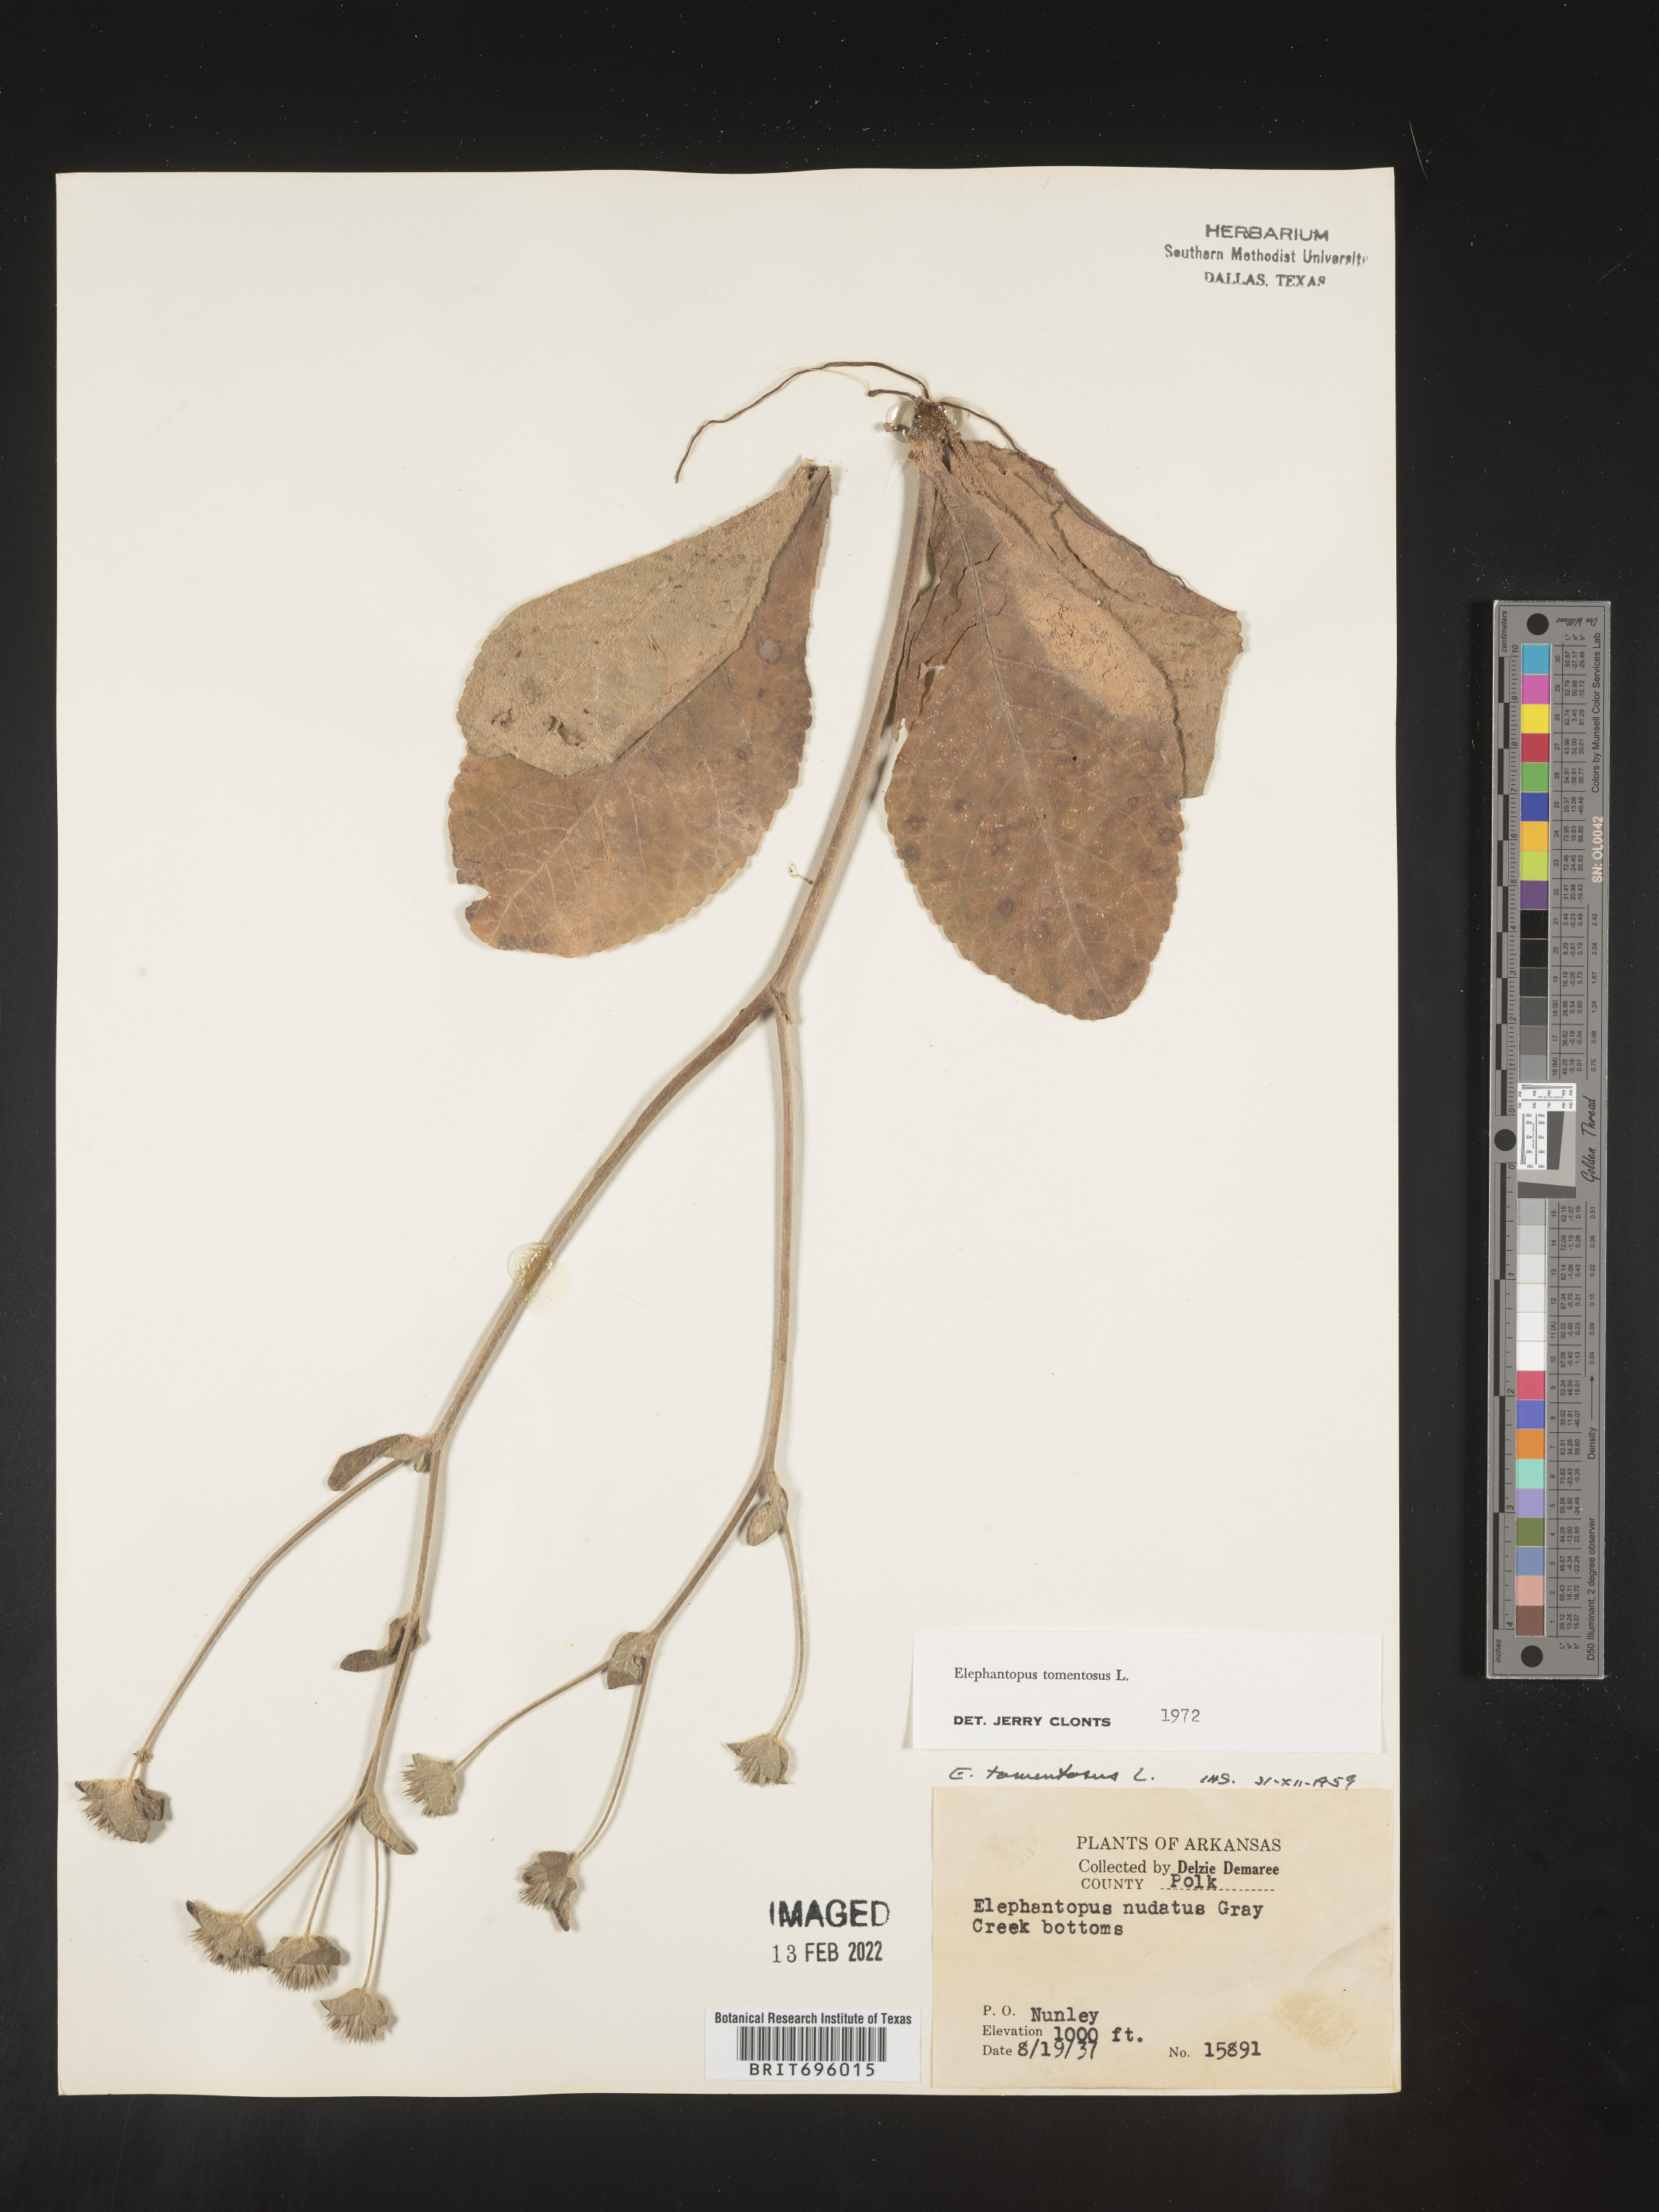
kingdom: Plantae
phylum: Tracheophyta
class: Magnoliopsida
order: Asterales
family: Asteraceae
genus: Elephantopus
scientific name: Elephantopus tomentosus
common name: Tobacco-weed
